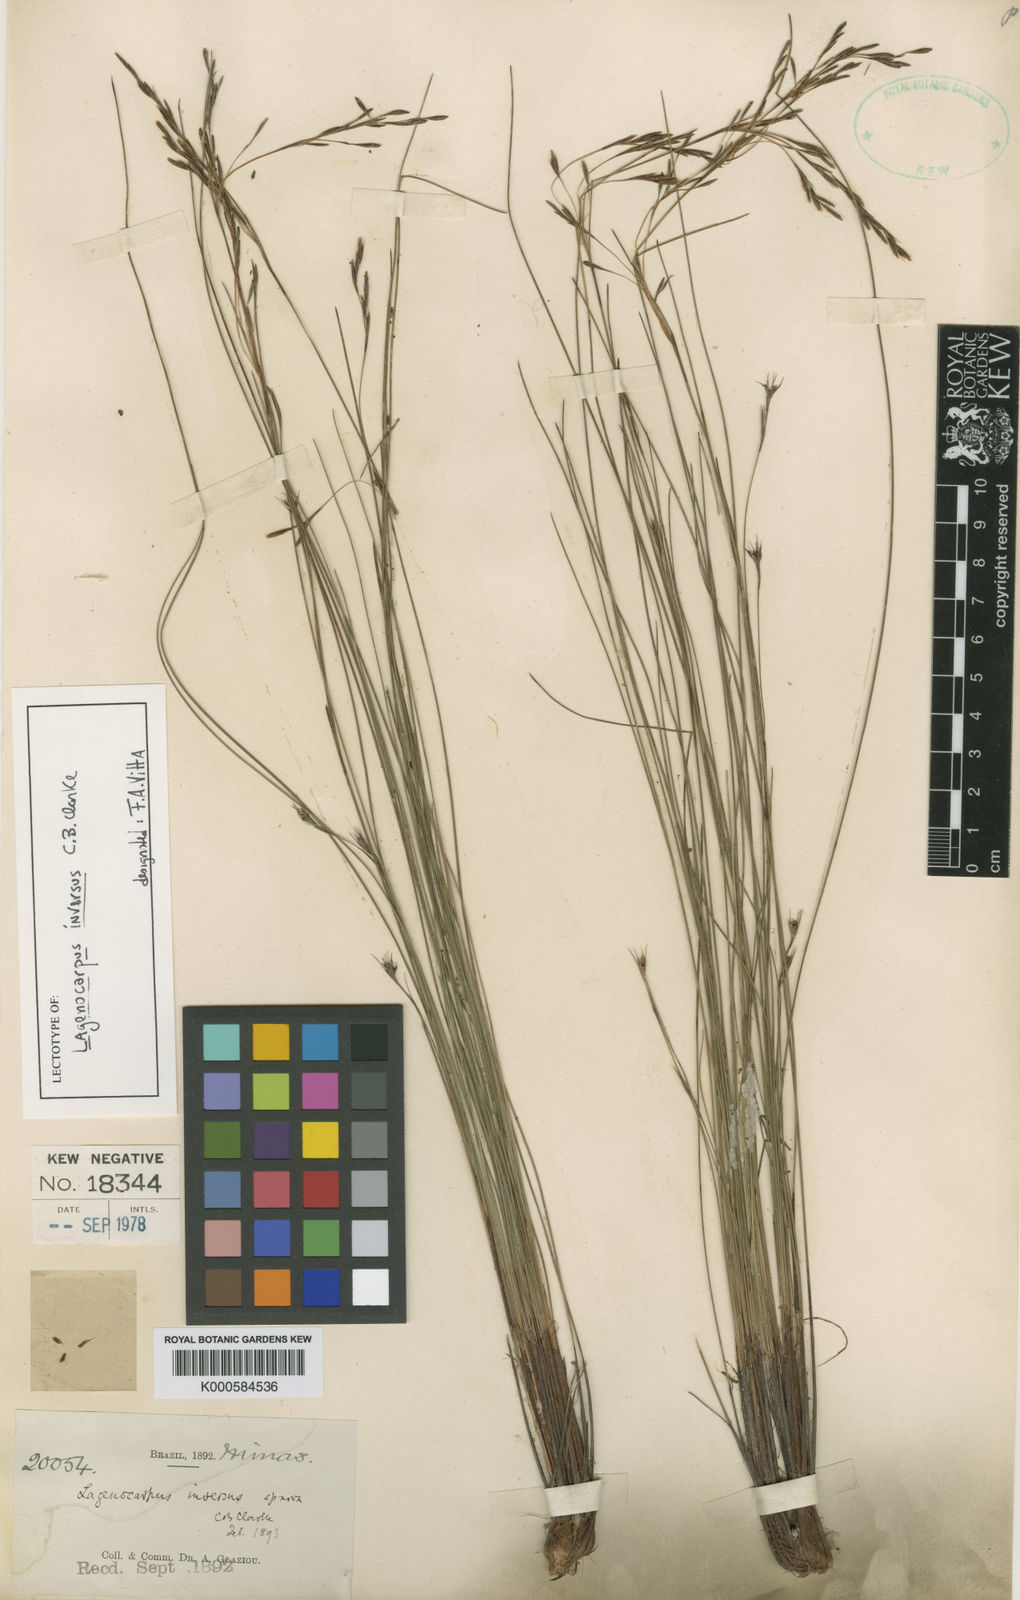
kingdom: Plantae
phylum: Tracheophyta
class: Liliopsida
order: Poales
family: Cyperaceae
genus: Lagenocarpus
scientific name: Lagenocarpus rigidus
